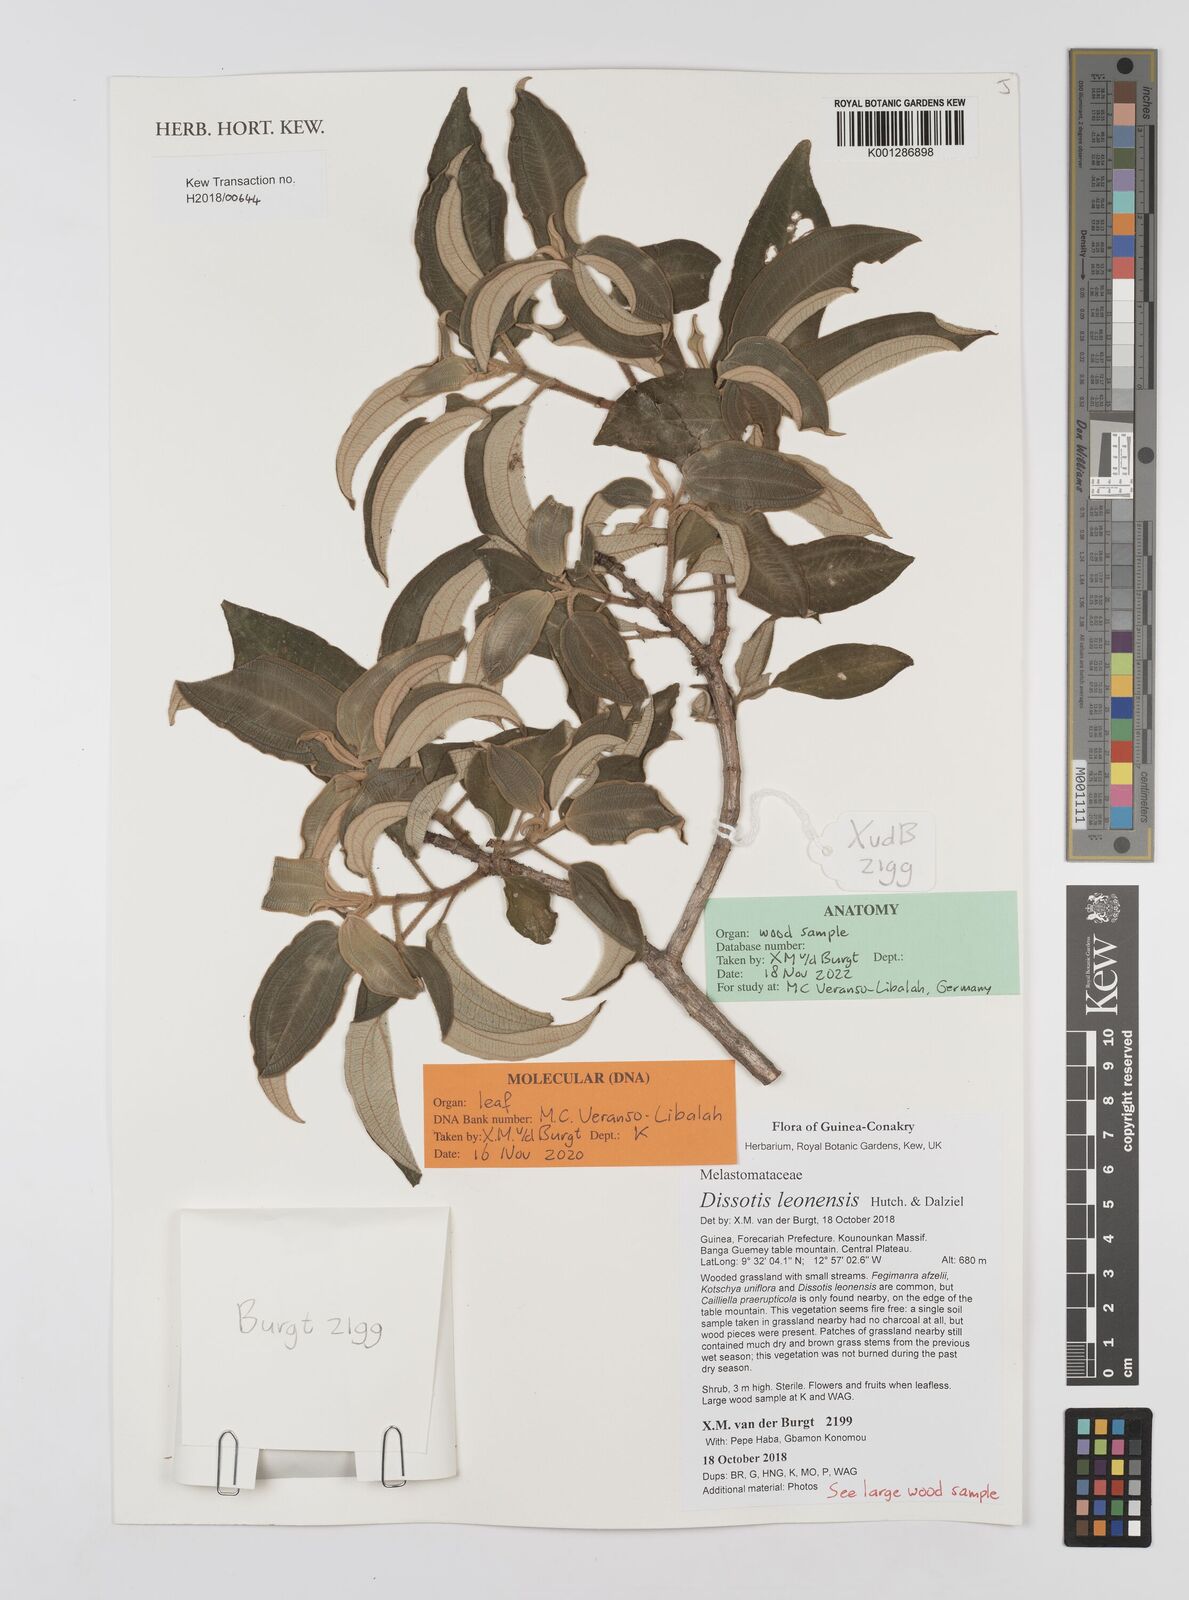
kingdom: Plantae
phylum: Tracheophyta
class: Magnoliopsida
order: Myrtales
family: Melastomataceae
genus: Dissotis
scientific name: Dissotis leonensis
